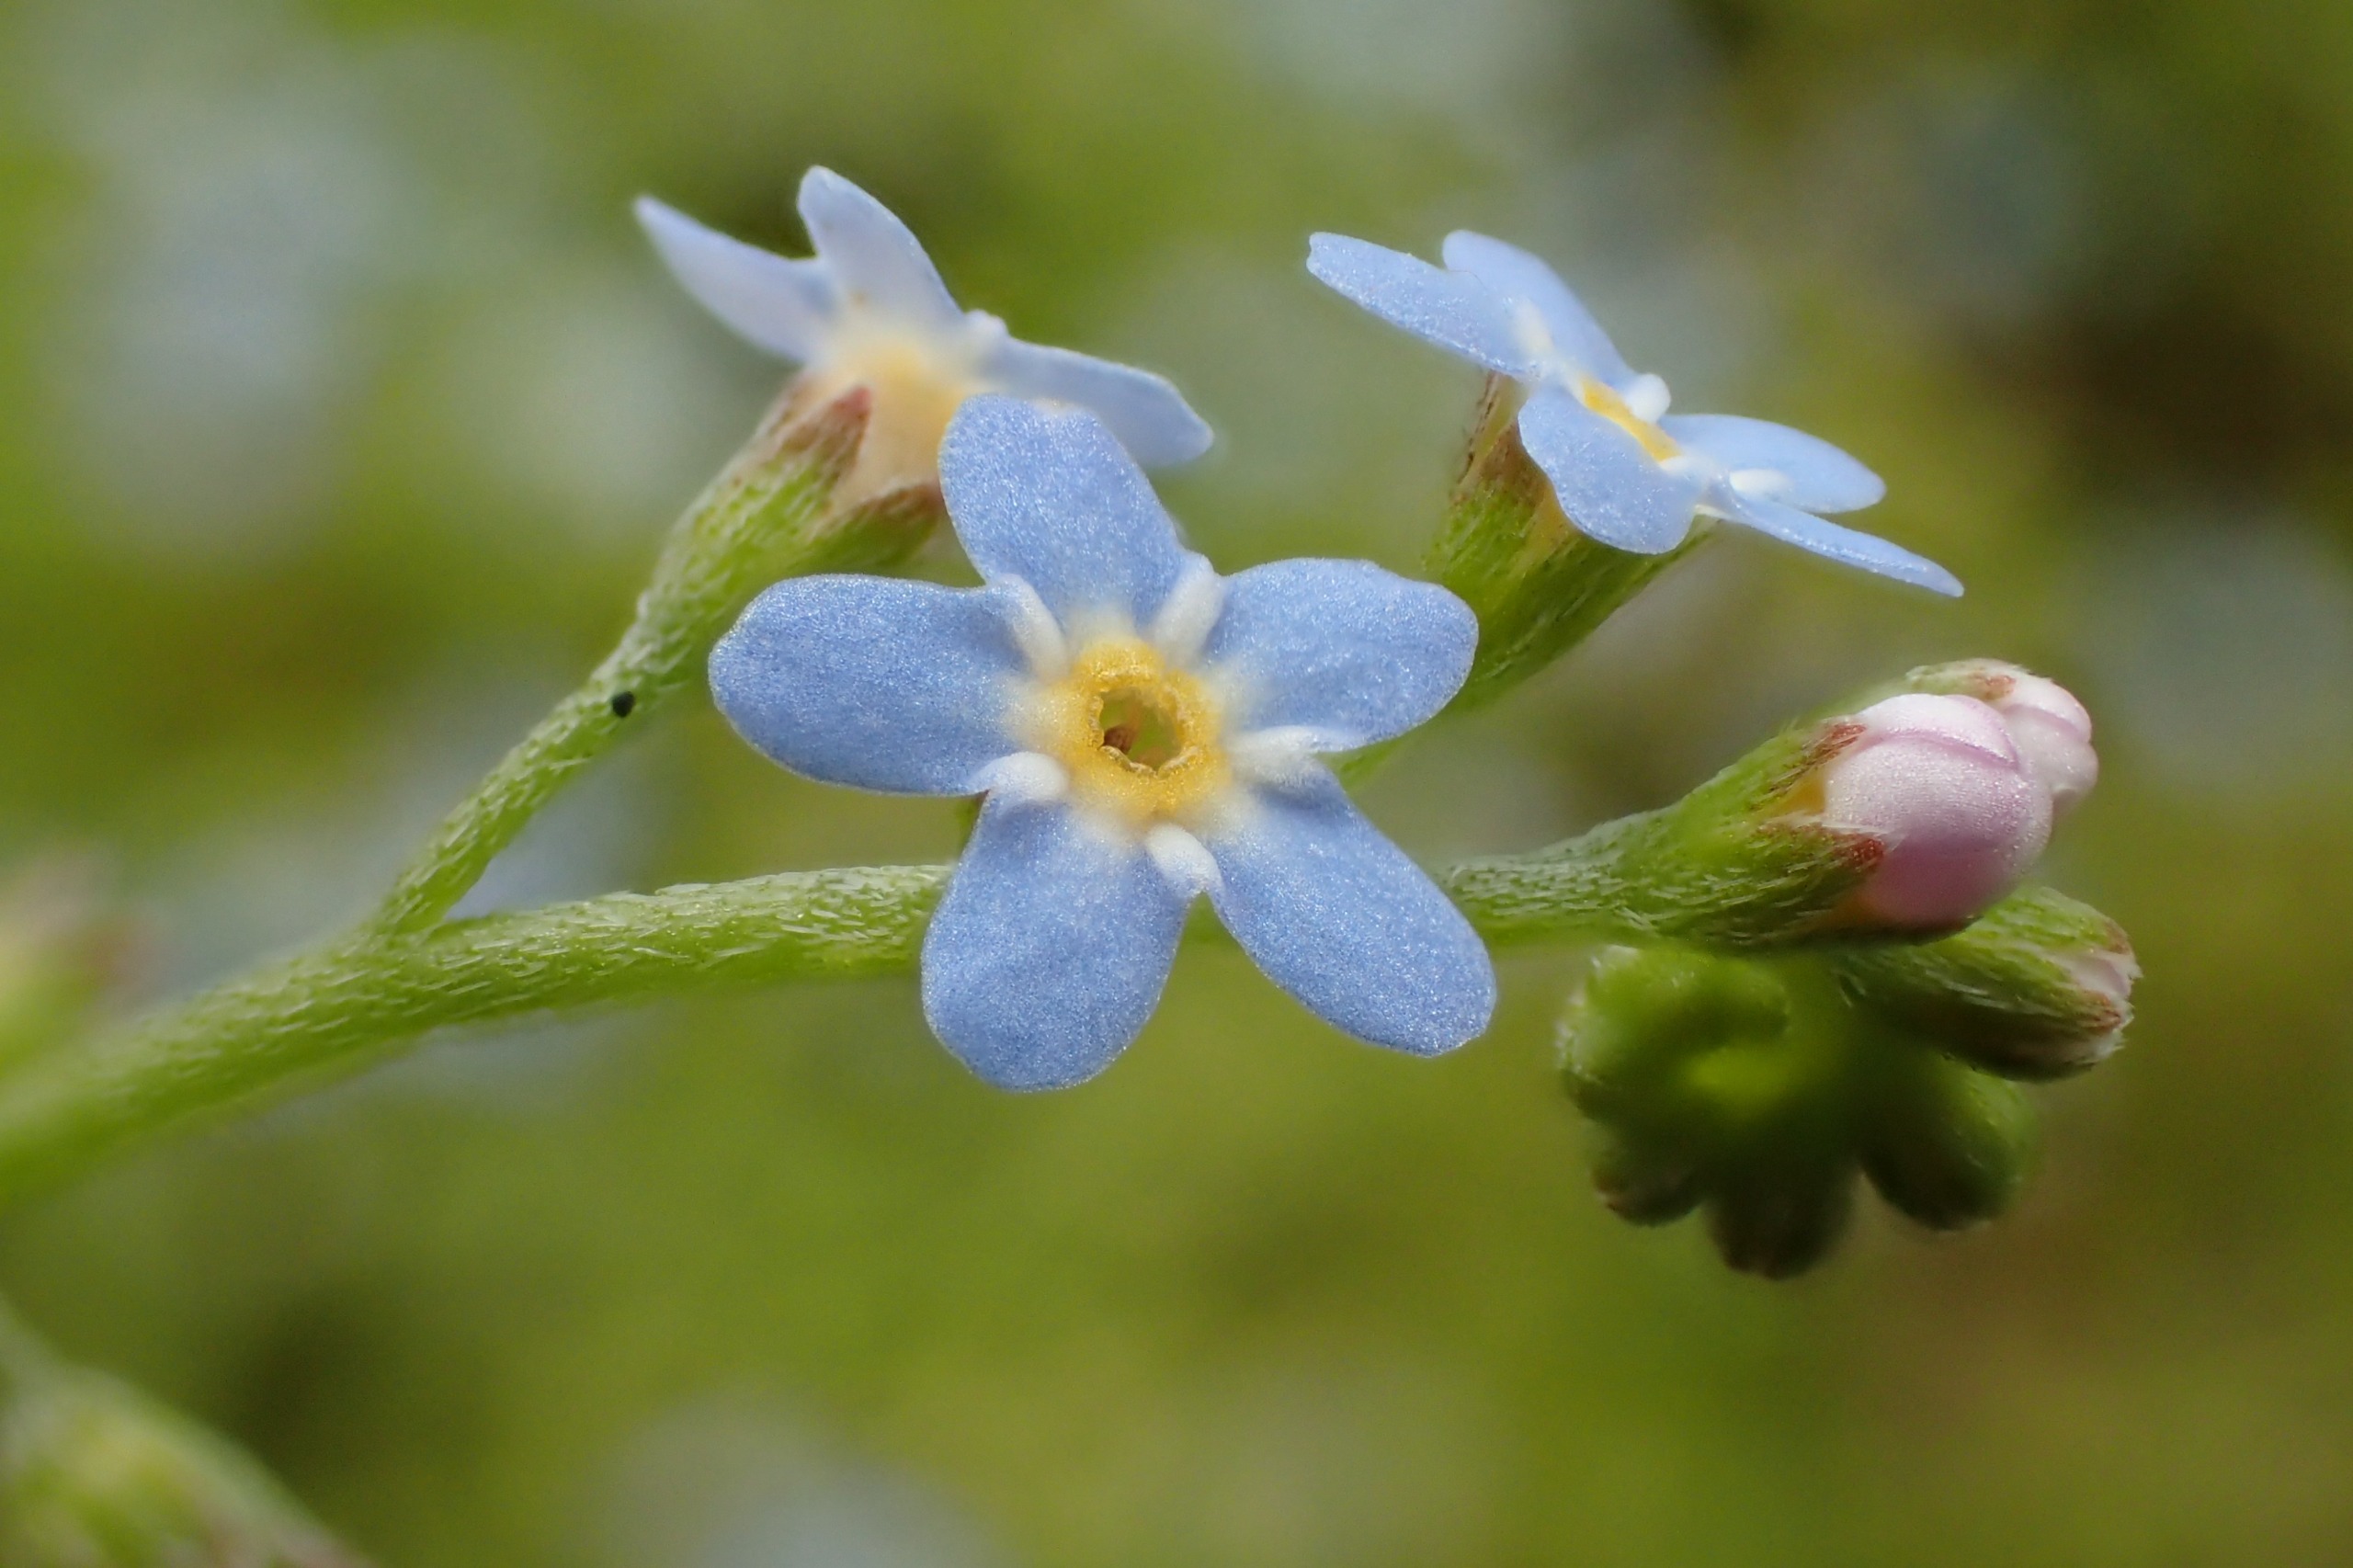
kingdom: Plantae
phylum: Tracheophyta
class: Magnoliopsida
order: Boraginales
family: Boraginaceae
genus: Myosotis
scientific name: Myosotis laxa
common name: Sump-forglemmigej
